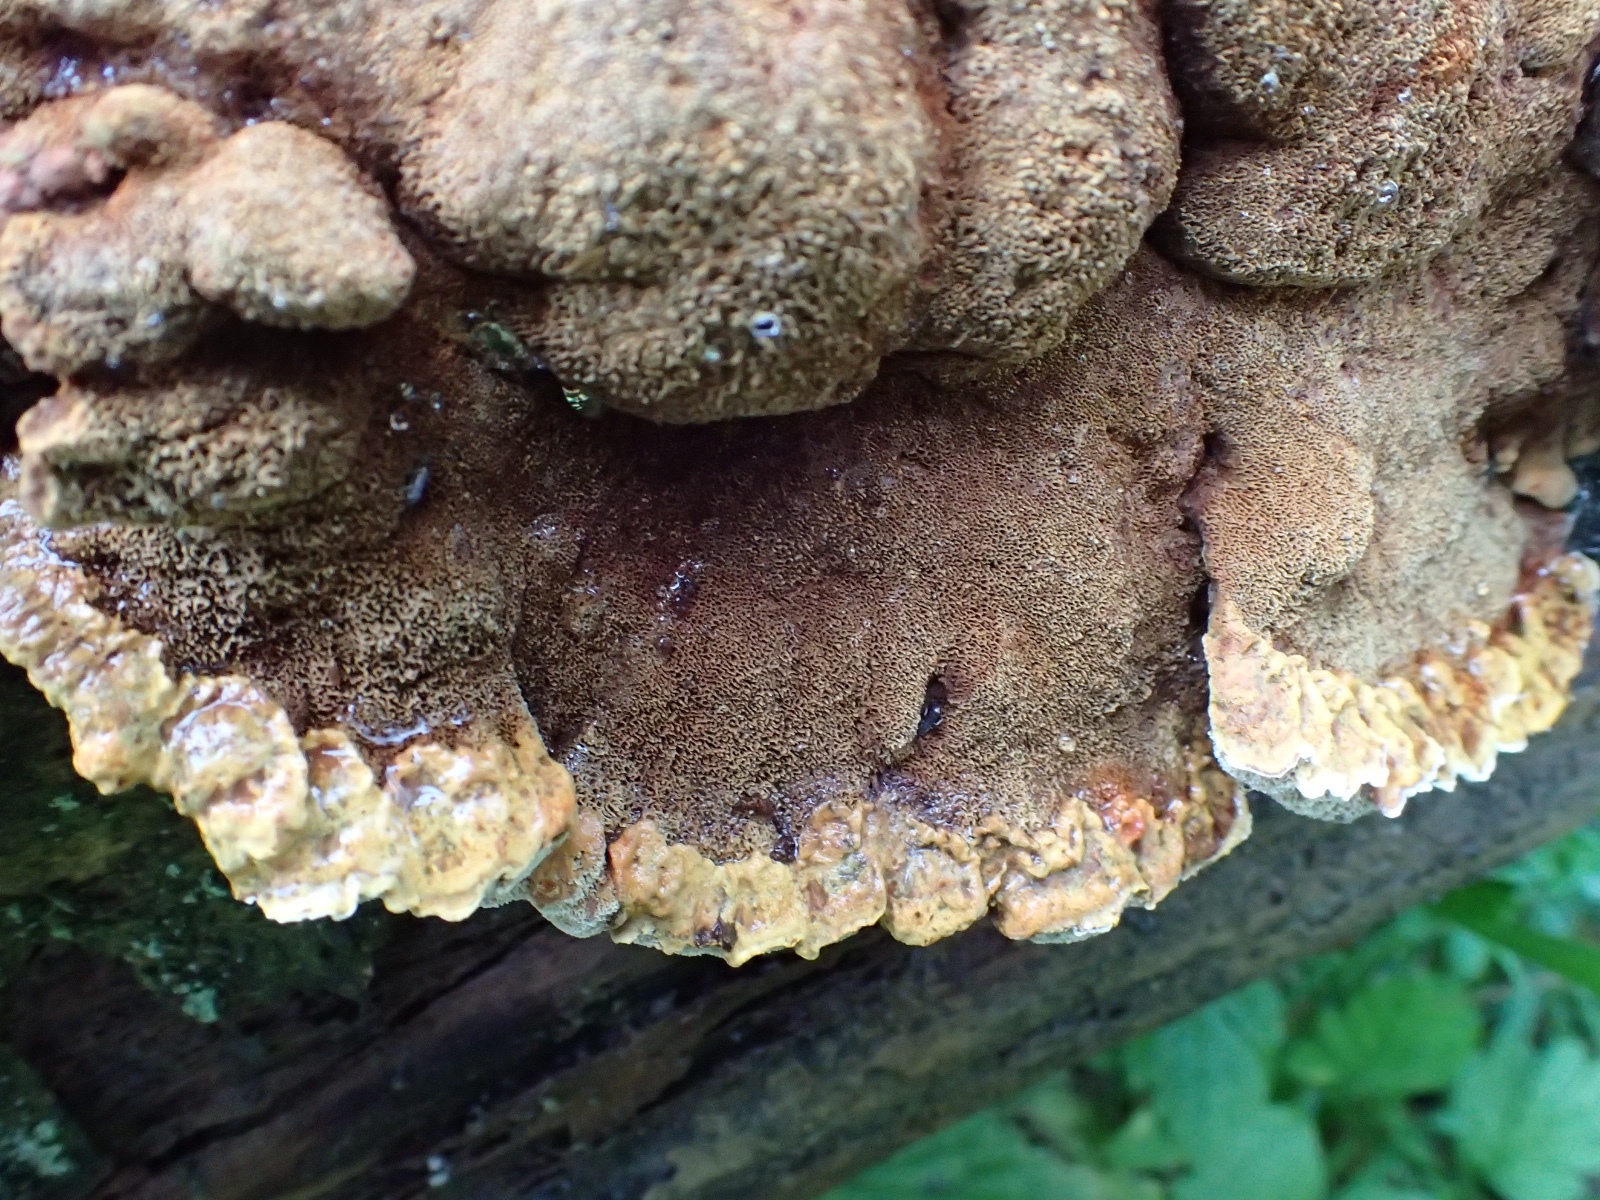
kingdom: Fungi
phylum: Basidiomycota
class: Agaricomycetes
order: Hymenochaetales
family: Hymenochaetaceae
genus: Xanthoporia
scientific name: Xanthoporia radiata
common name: elle-spejlporesvamp
